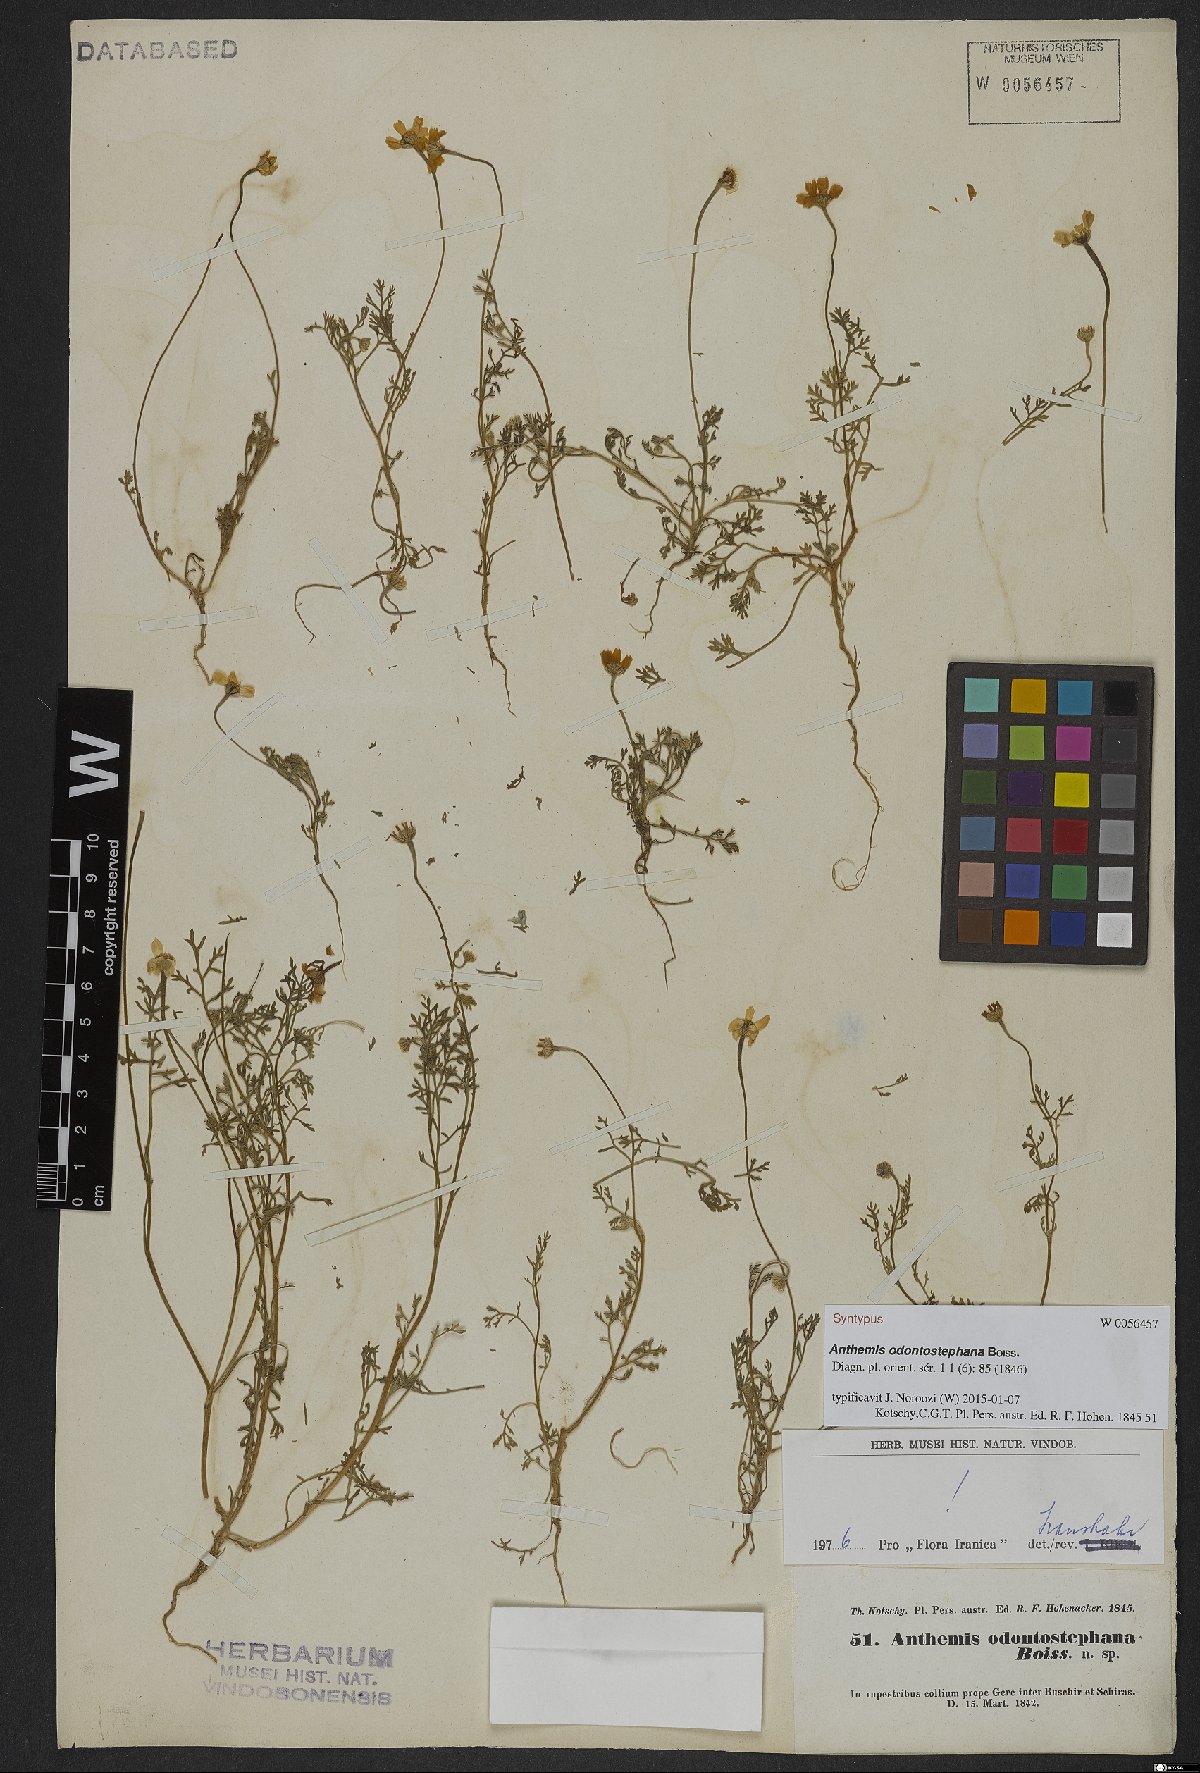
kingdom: Plantae
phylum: Tracheophyta
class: Magnoliopsida
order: Asterales
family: Asteraceae
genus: Anthemis
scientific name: Anthemis odontostephana
